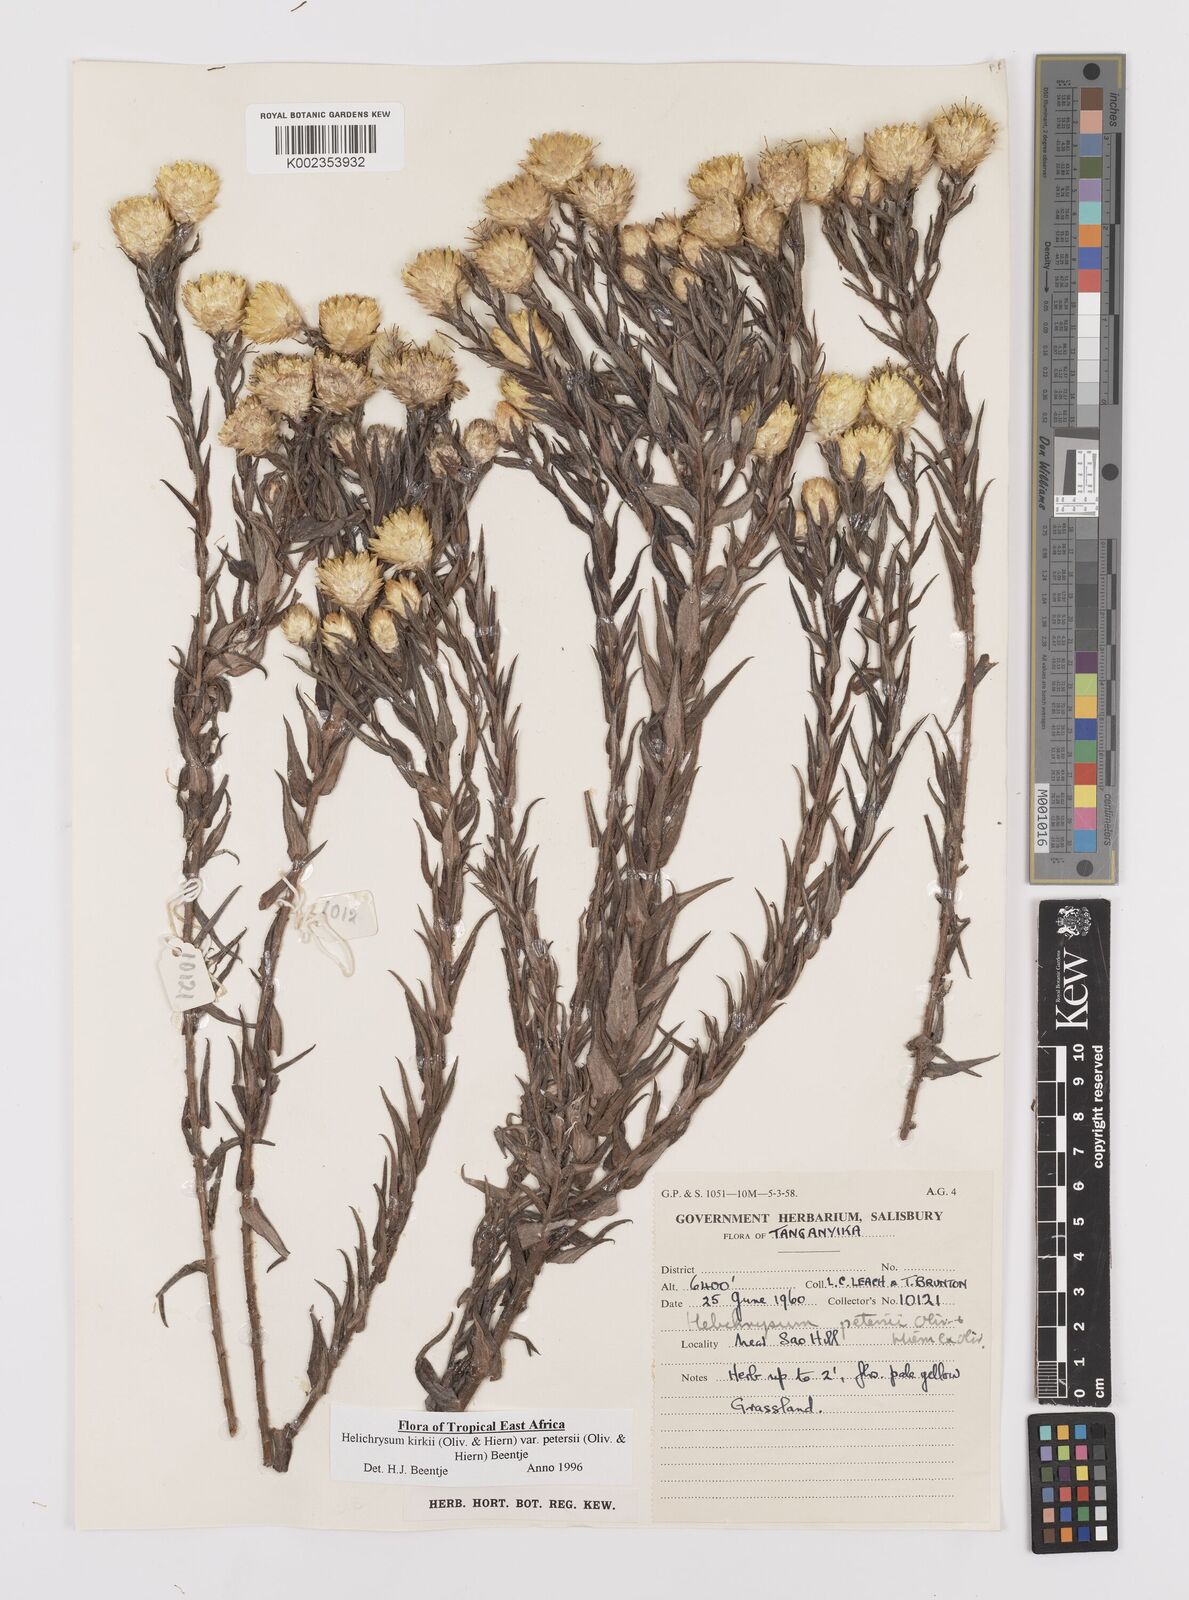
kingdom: Plantae
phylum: Tracheophyta
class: Magnoliopsida
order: Asterales
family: Asteraceae
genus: Helichrysum
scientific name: Helichrysum kirkii
